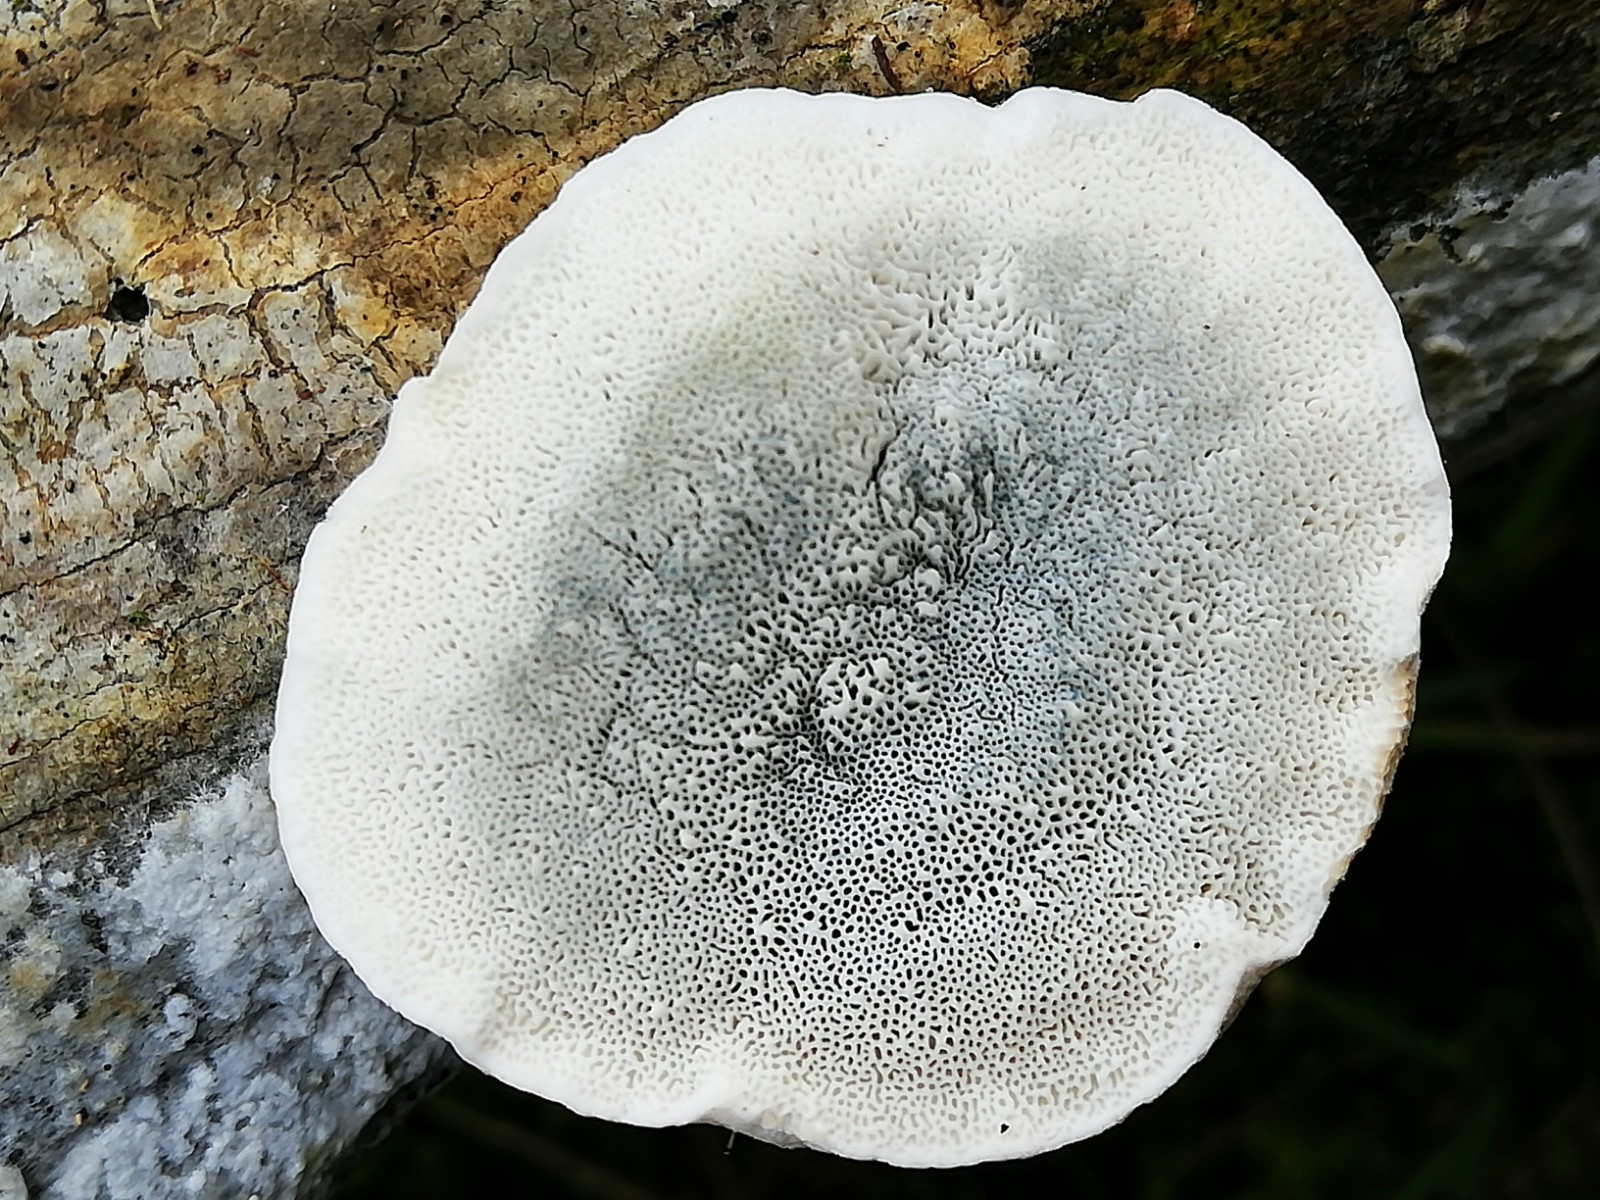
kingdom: Fungi
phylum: Basidiomycota
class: Agaricomycetes
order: Polyporales
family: Polyporaceae
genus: Cyanosporus
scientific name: Cyanosporus alni
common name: blegblå kødporesvamp
